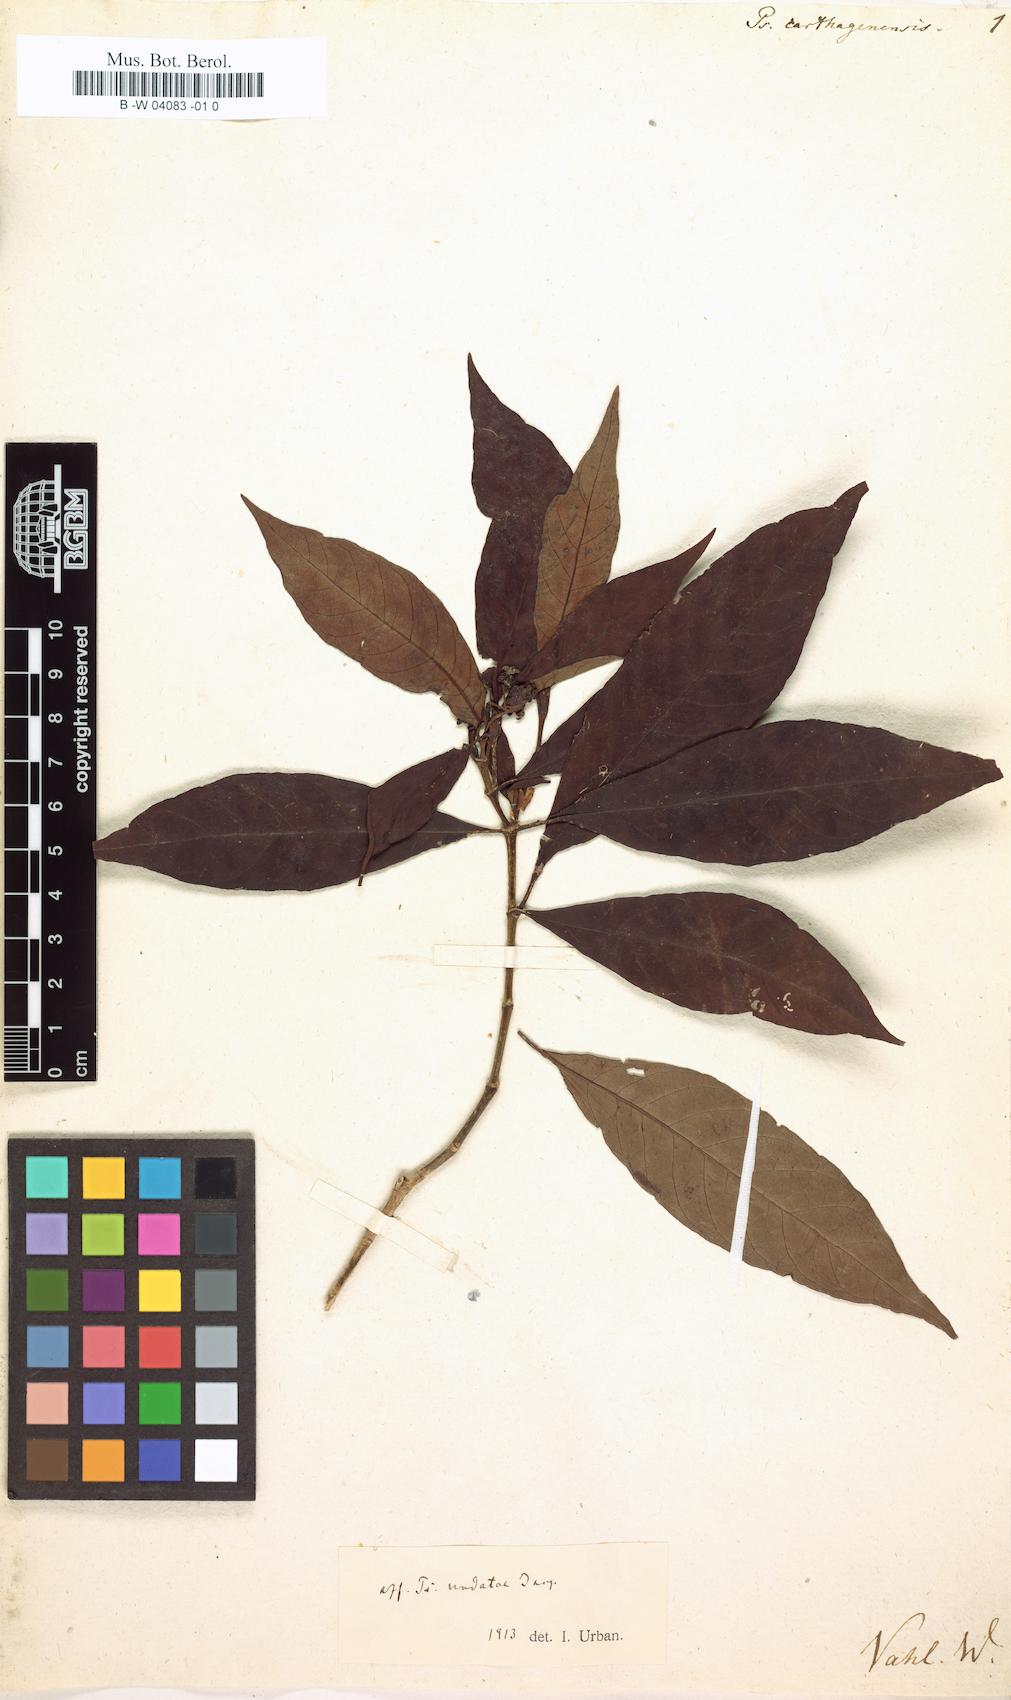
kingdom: Plantae
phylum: Tracheophyta
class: Magnoliopsida
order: Gentianales
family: Rubiaceae
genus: Psychotria
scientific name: Psychotria carthagenensis
